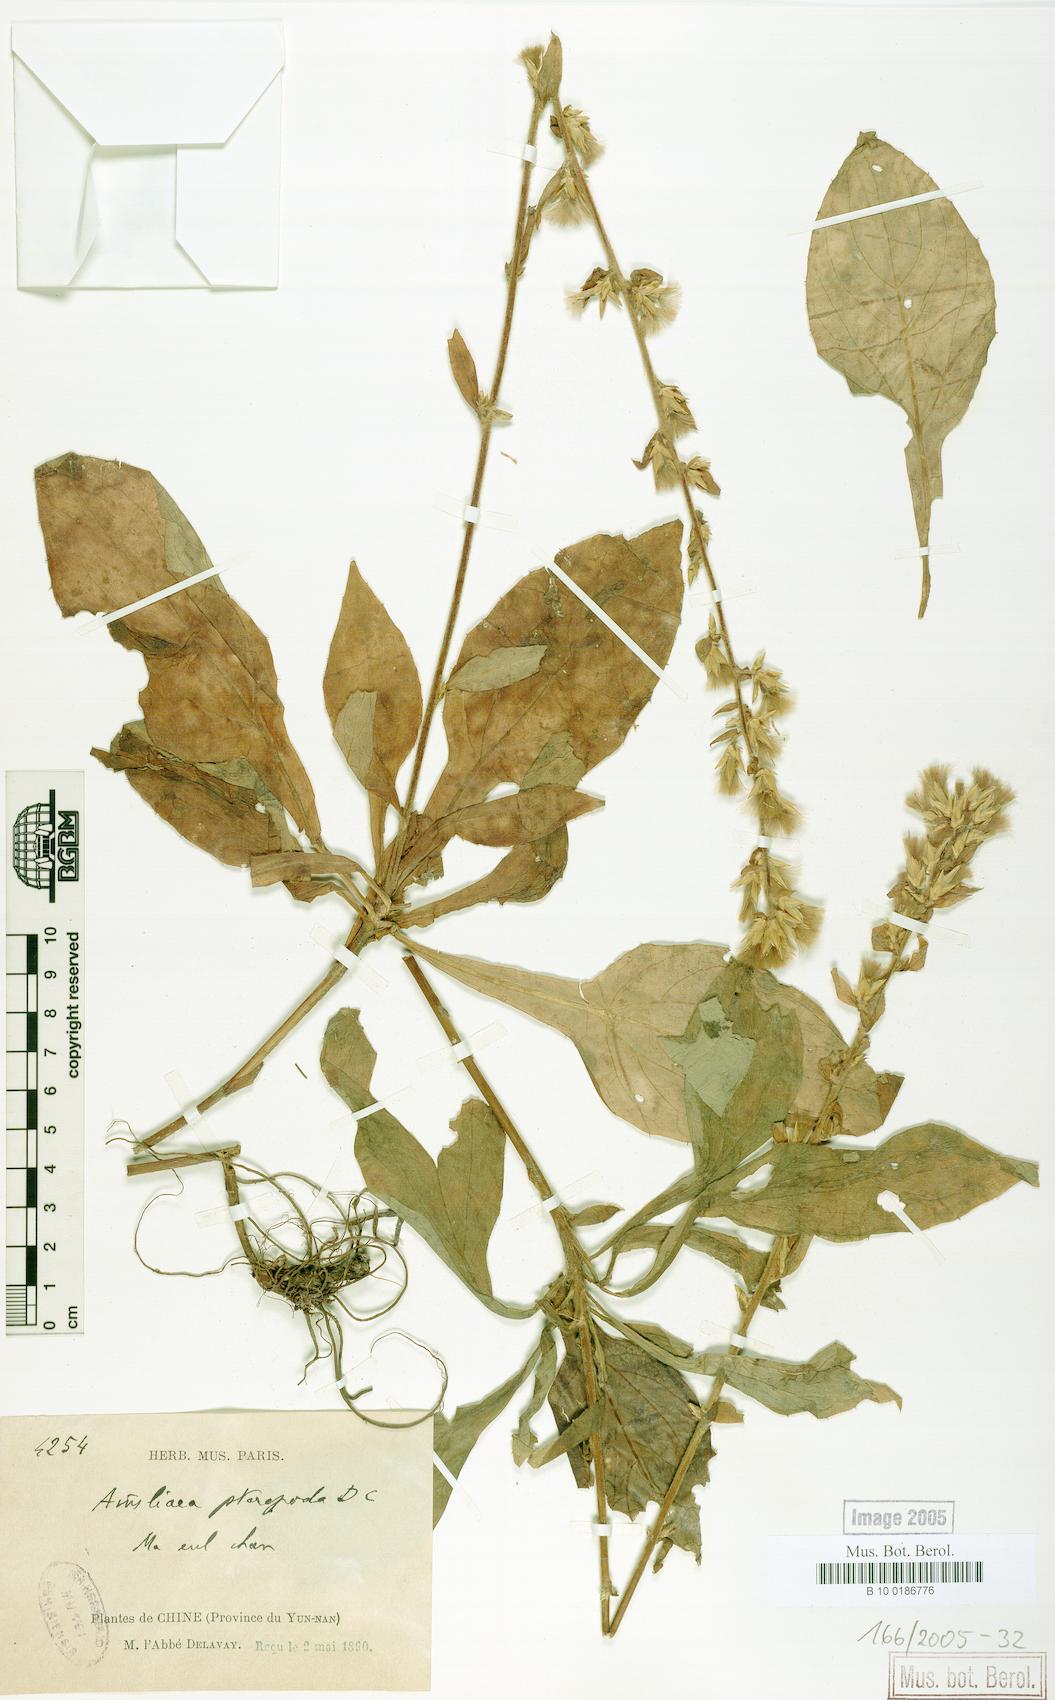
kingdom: Plantae
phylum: Tracheophyta
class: Magnoliopsida
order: Asterales
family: Asteraceae
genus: Ainsliaea
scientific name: Ainsliaea latifolia
